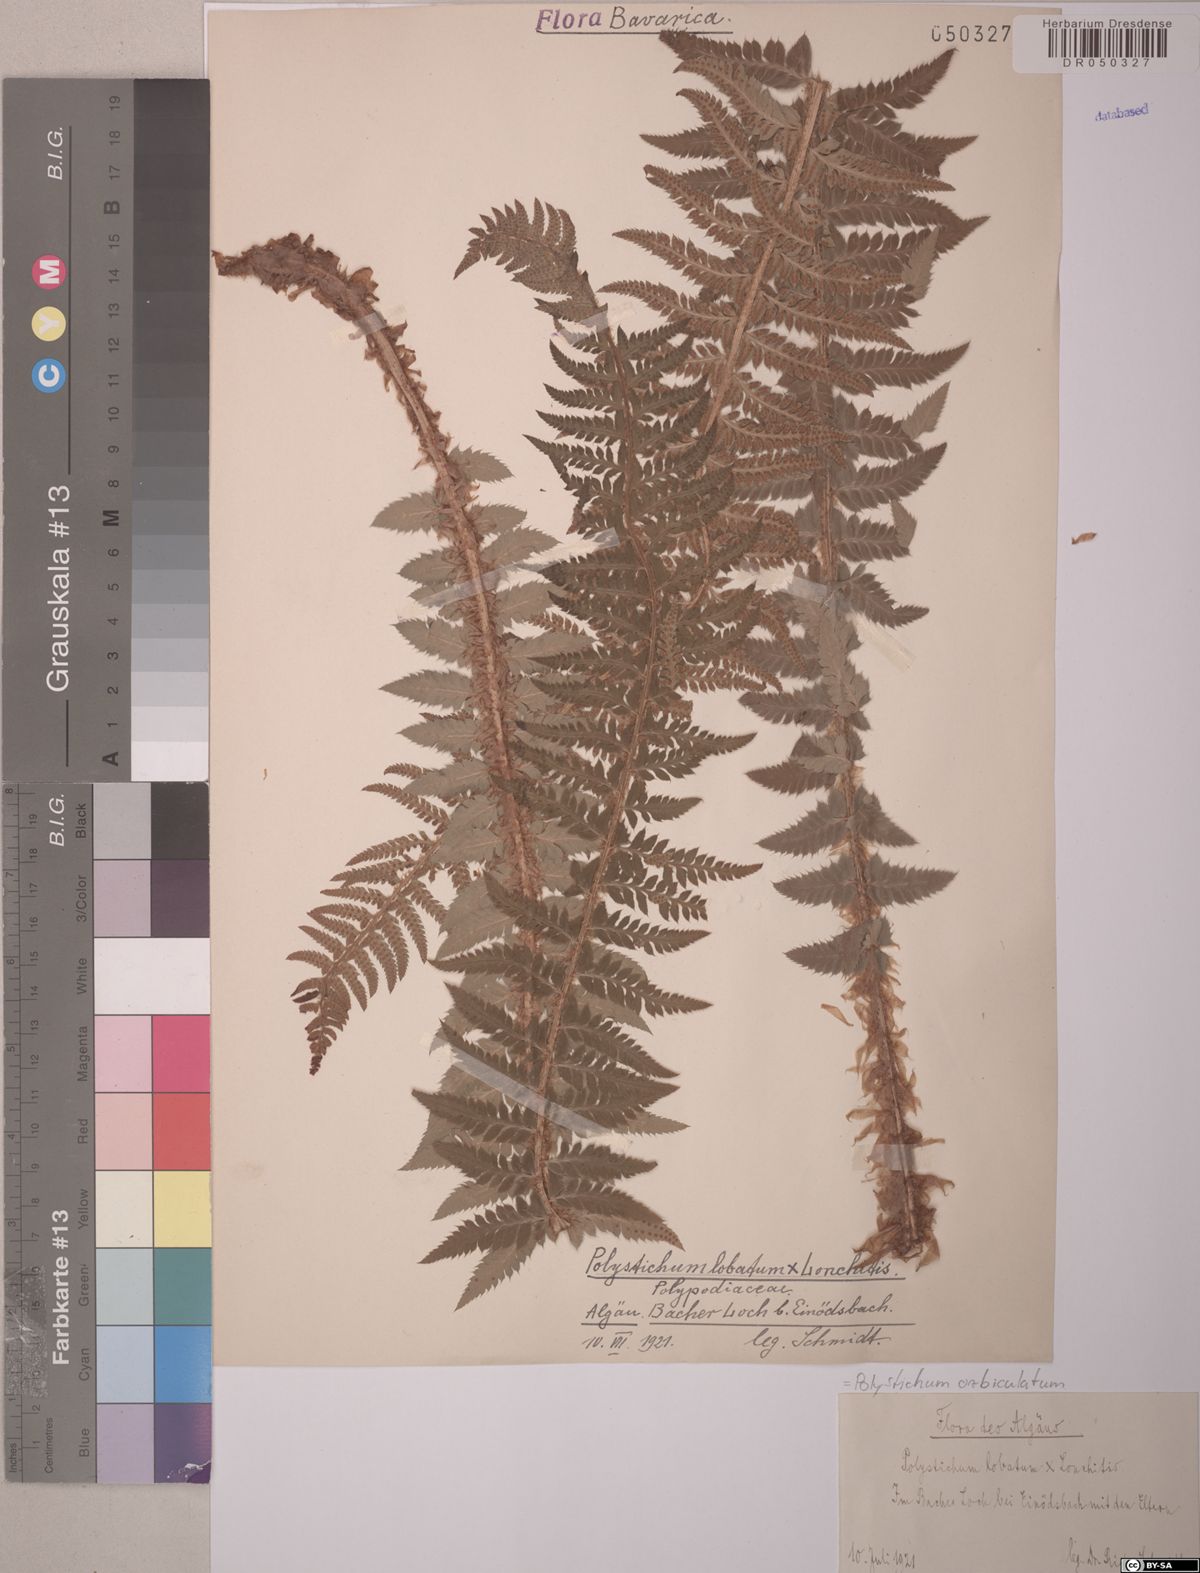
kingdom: Plantae
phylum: Tracheophyta
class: Polypodiopsida
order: Polypodiales
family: Dryopteridaceae
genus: Polystichum
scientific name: Polystichum aculeatum
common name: Hard shield-fern
